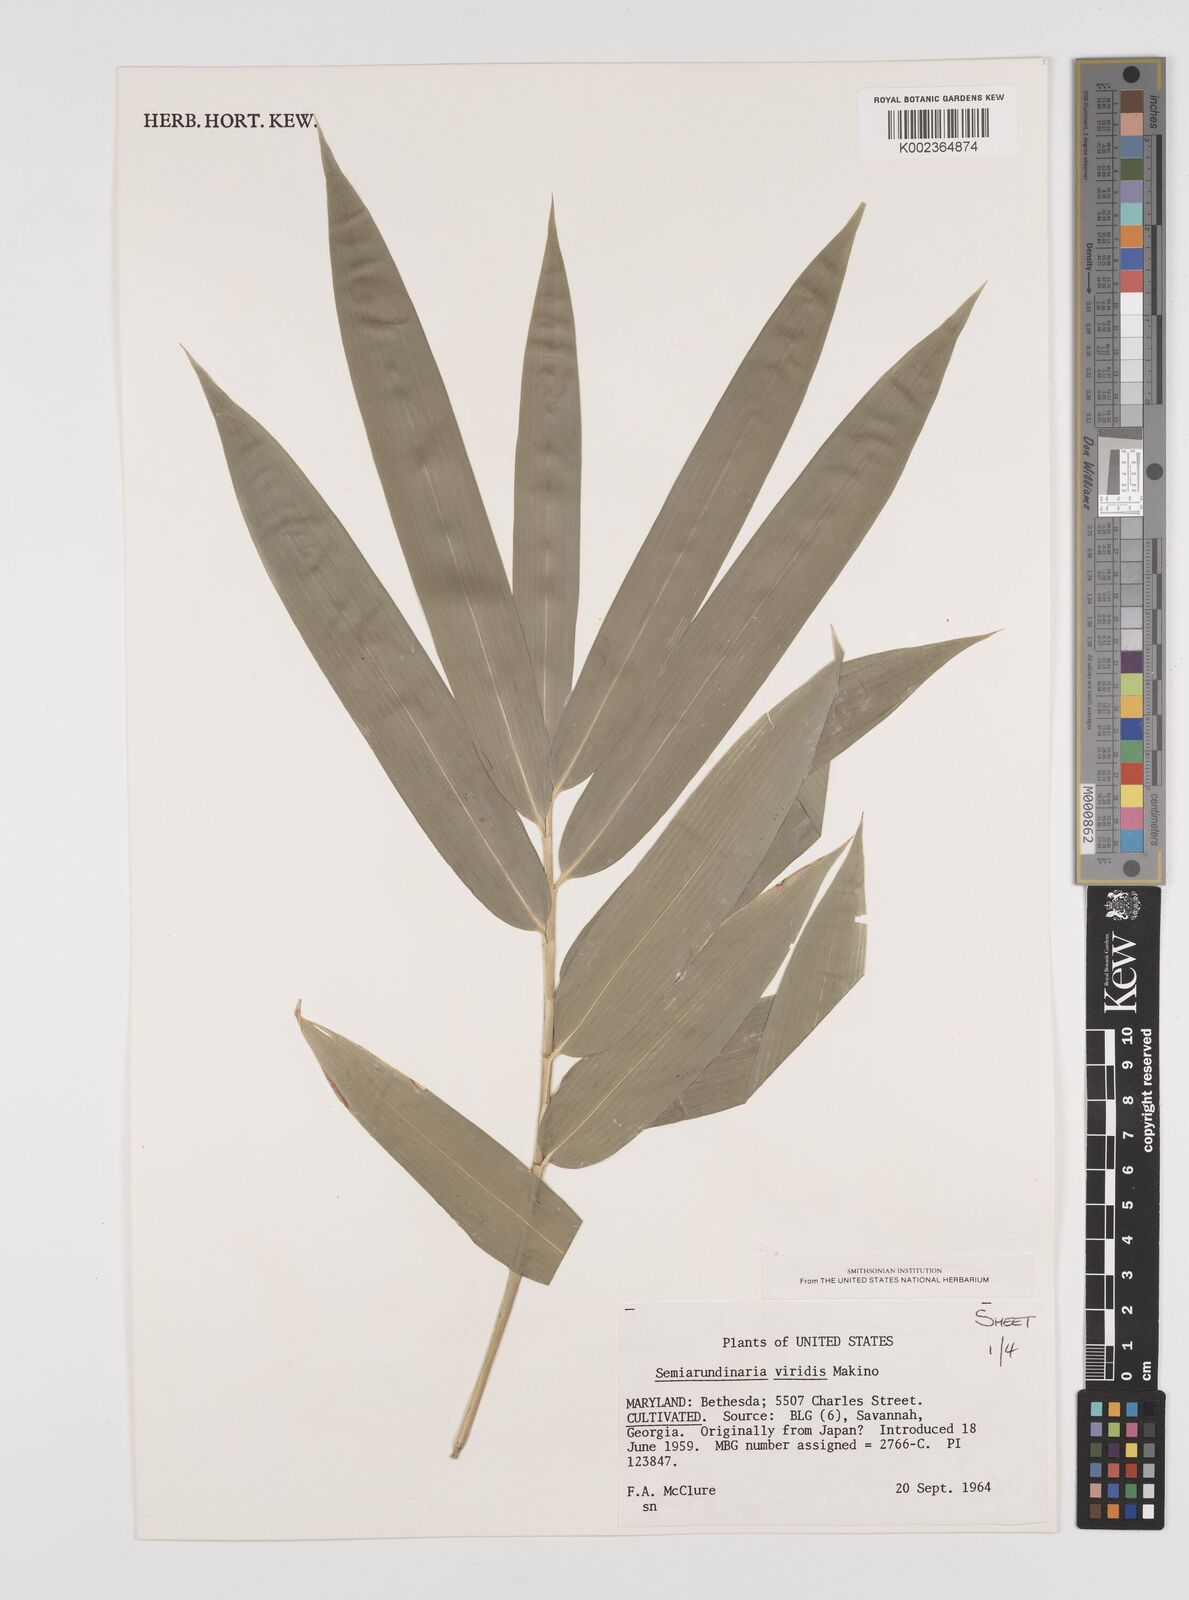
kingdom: Plantae
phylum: Tracheophyta
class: Liliopsida
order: Poales
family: Poaceae
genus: Semiarundinaria
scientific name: Semiarundinaria fastuosa
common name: Narihira bamboo
